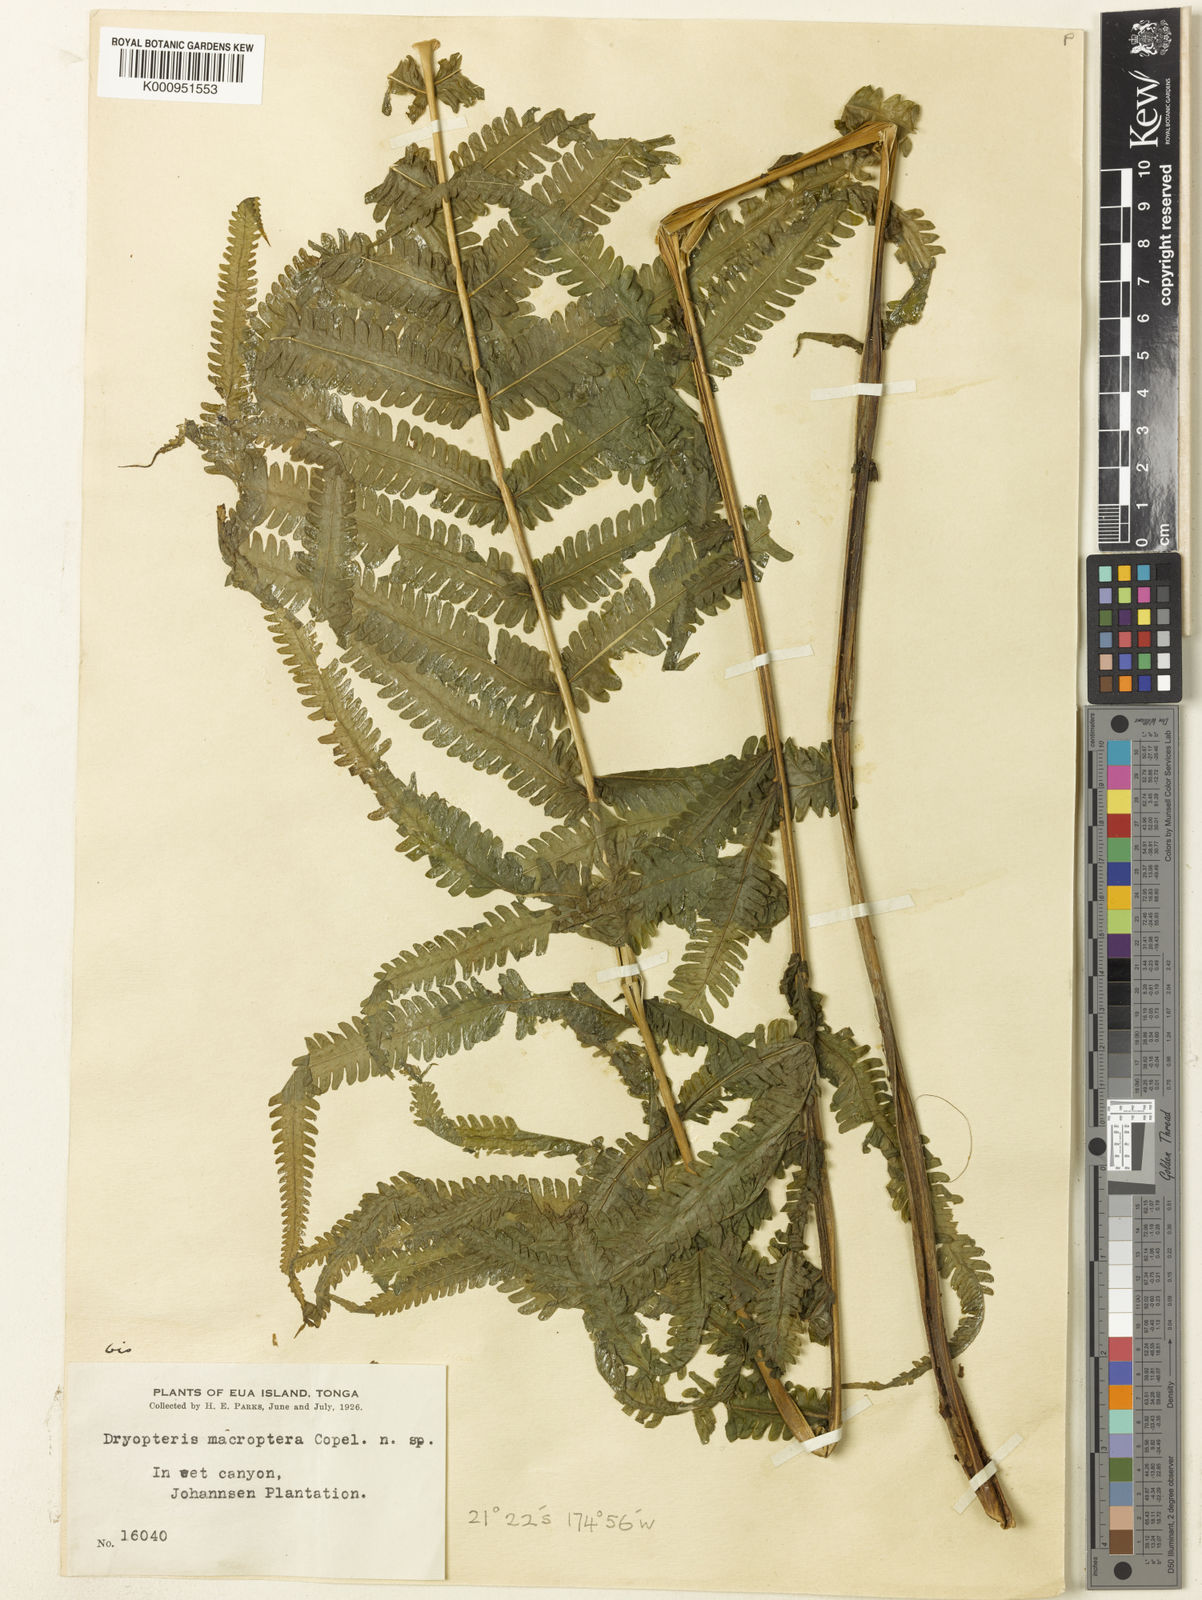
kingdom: Plantae
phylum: Tracheophyta
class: Polypodiopsida
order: Polypodiales
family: Thelypteridaceae
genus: Reholttumia
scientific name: Reholttumia macroptera
